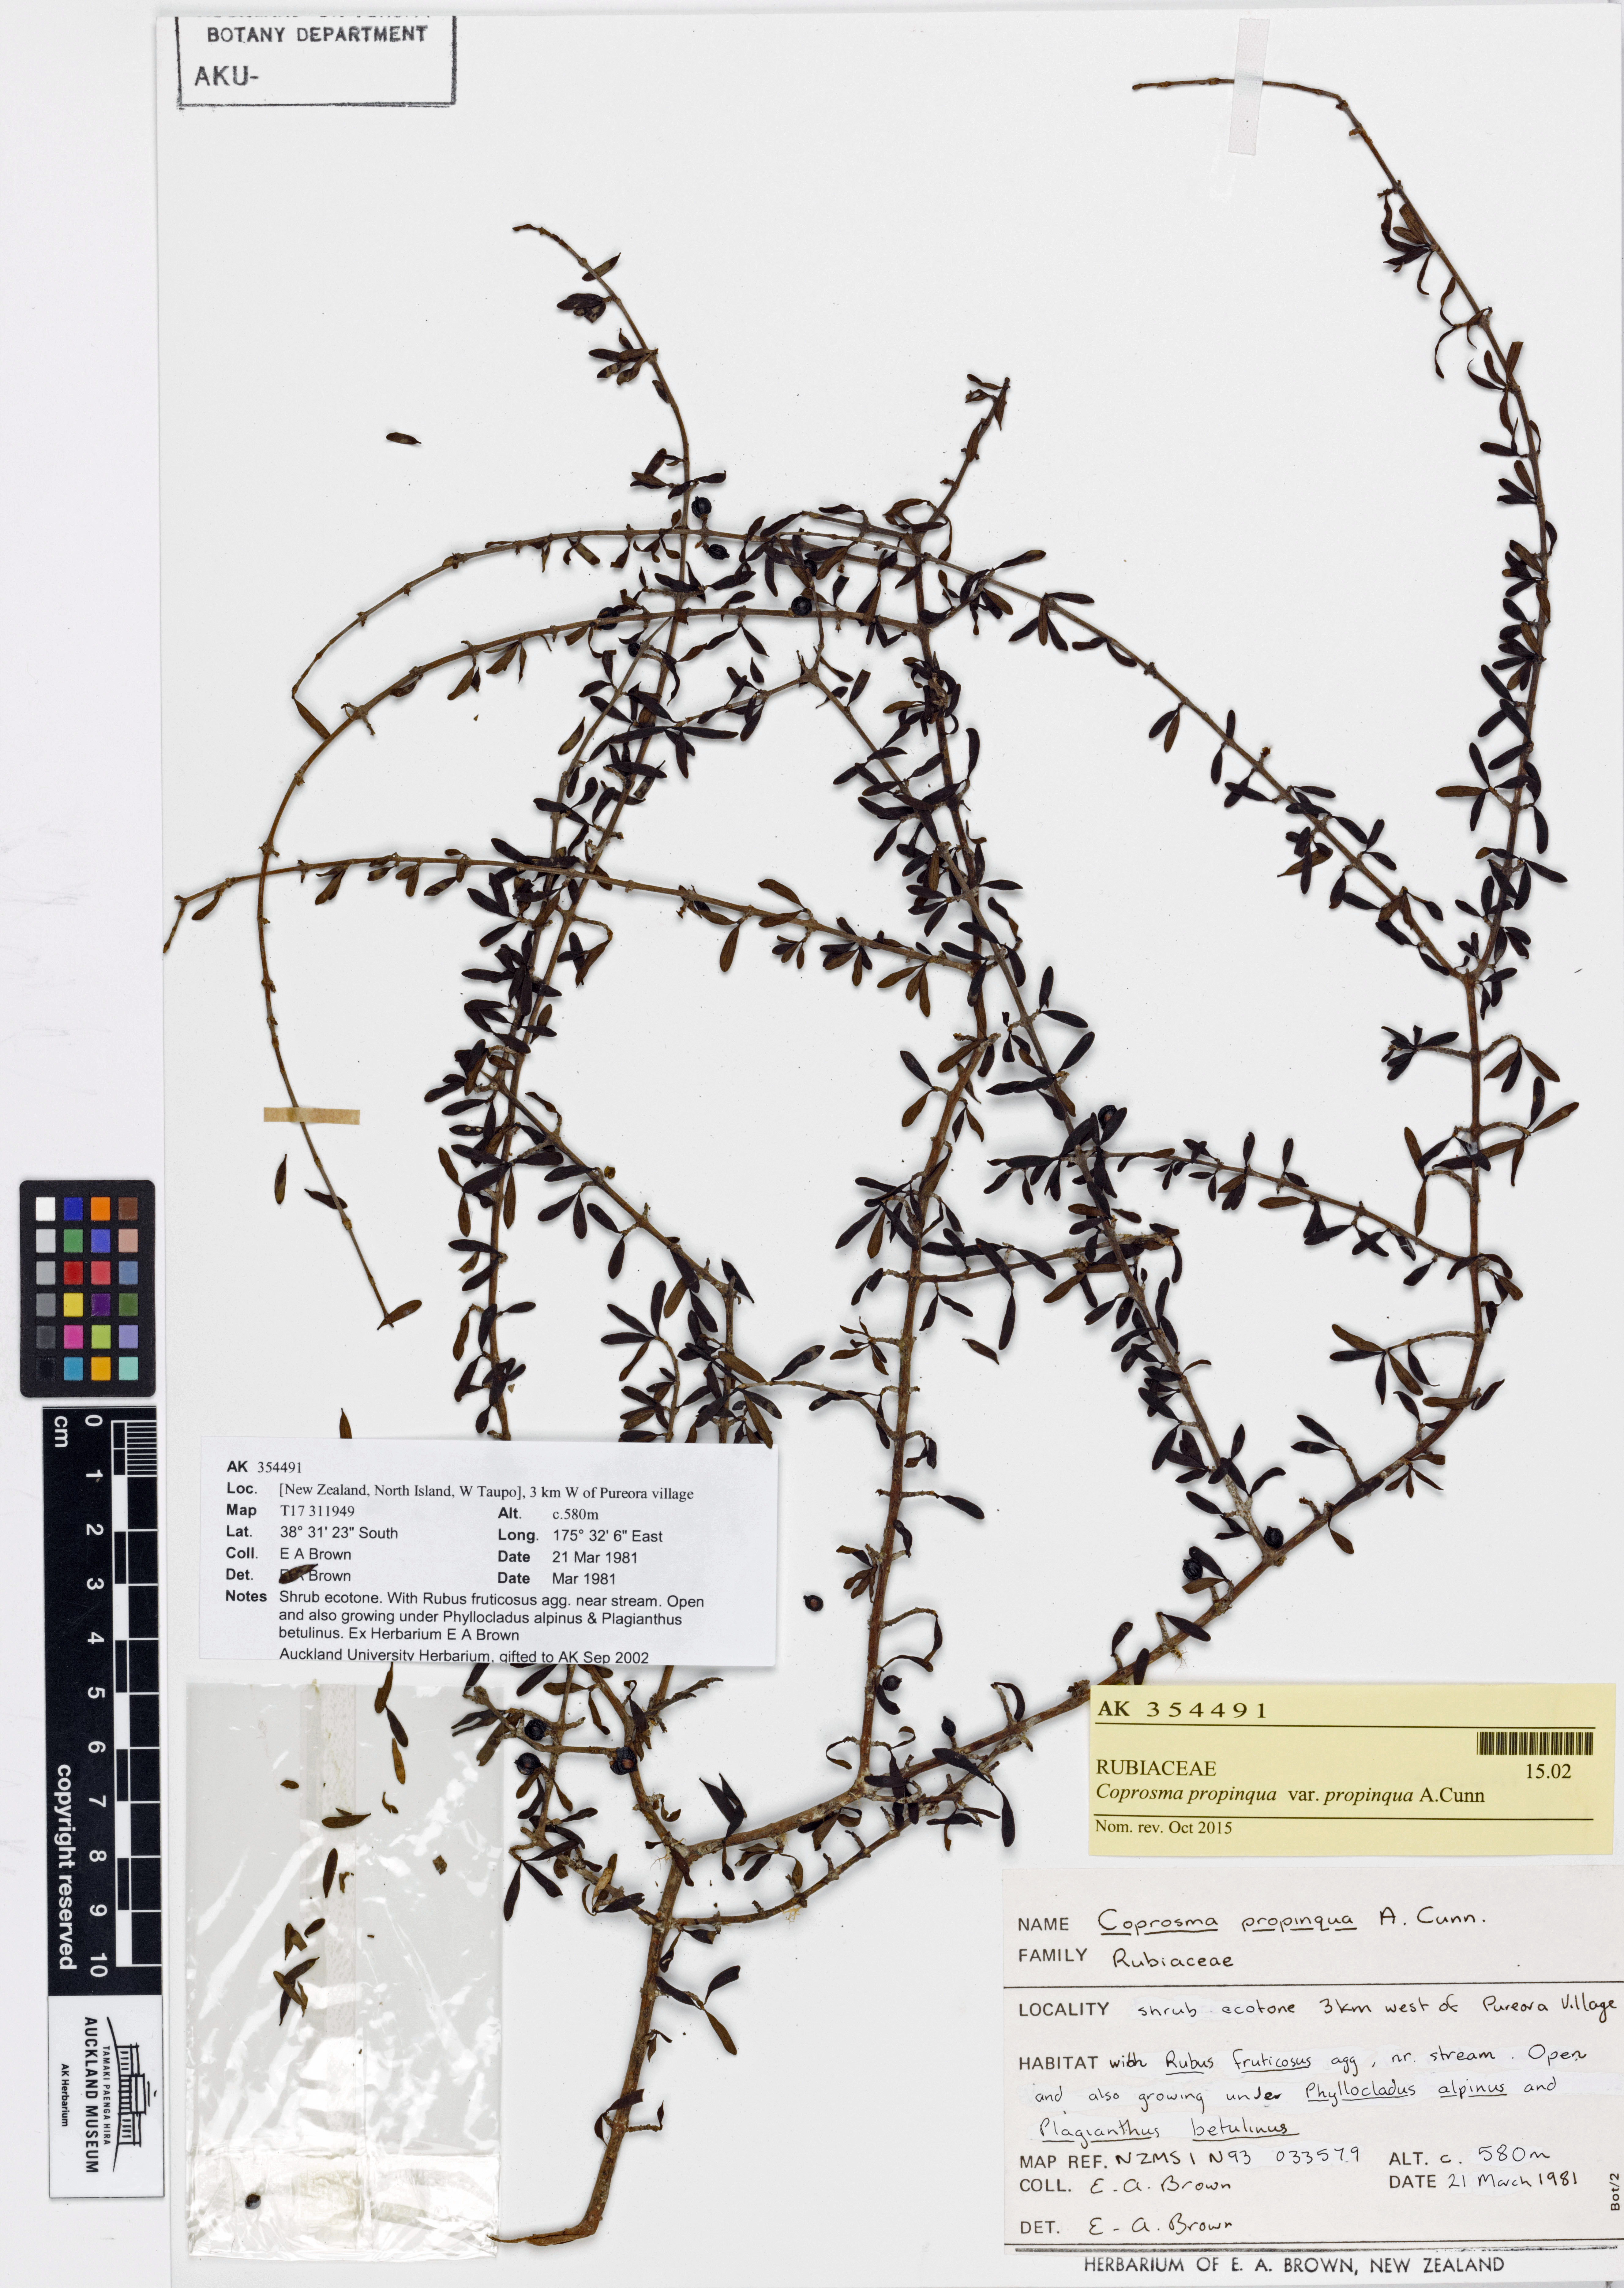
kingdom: Plantae
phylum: Tracheophyta
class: Magnoliopsida
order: Gentianales
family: Rubiaceae
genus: Coprosma
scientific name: Coprosma propinqua
